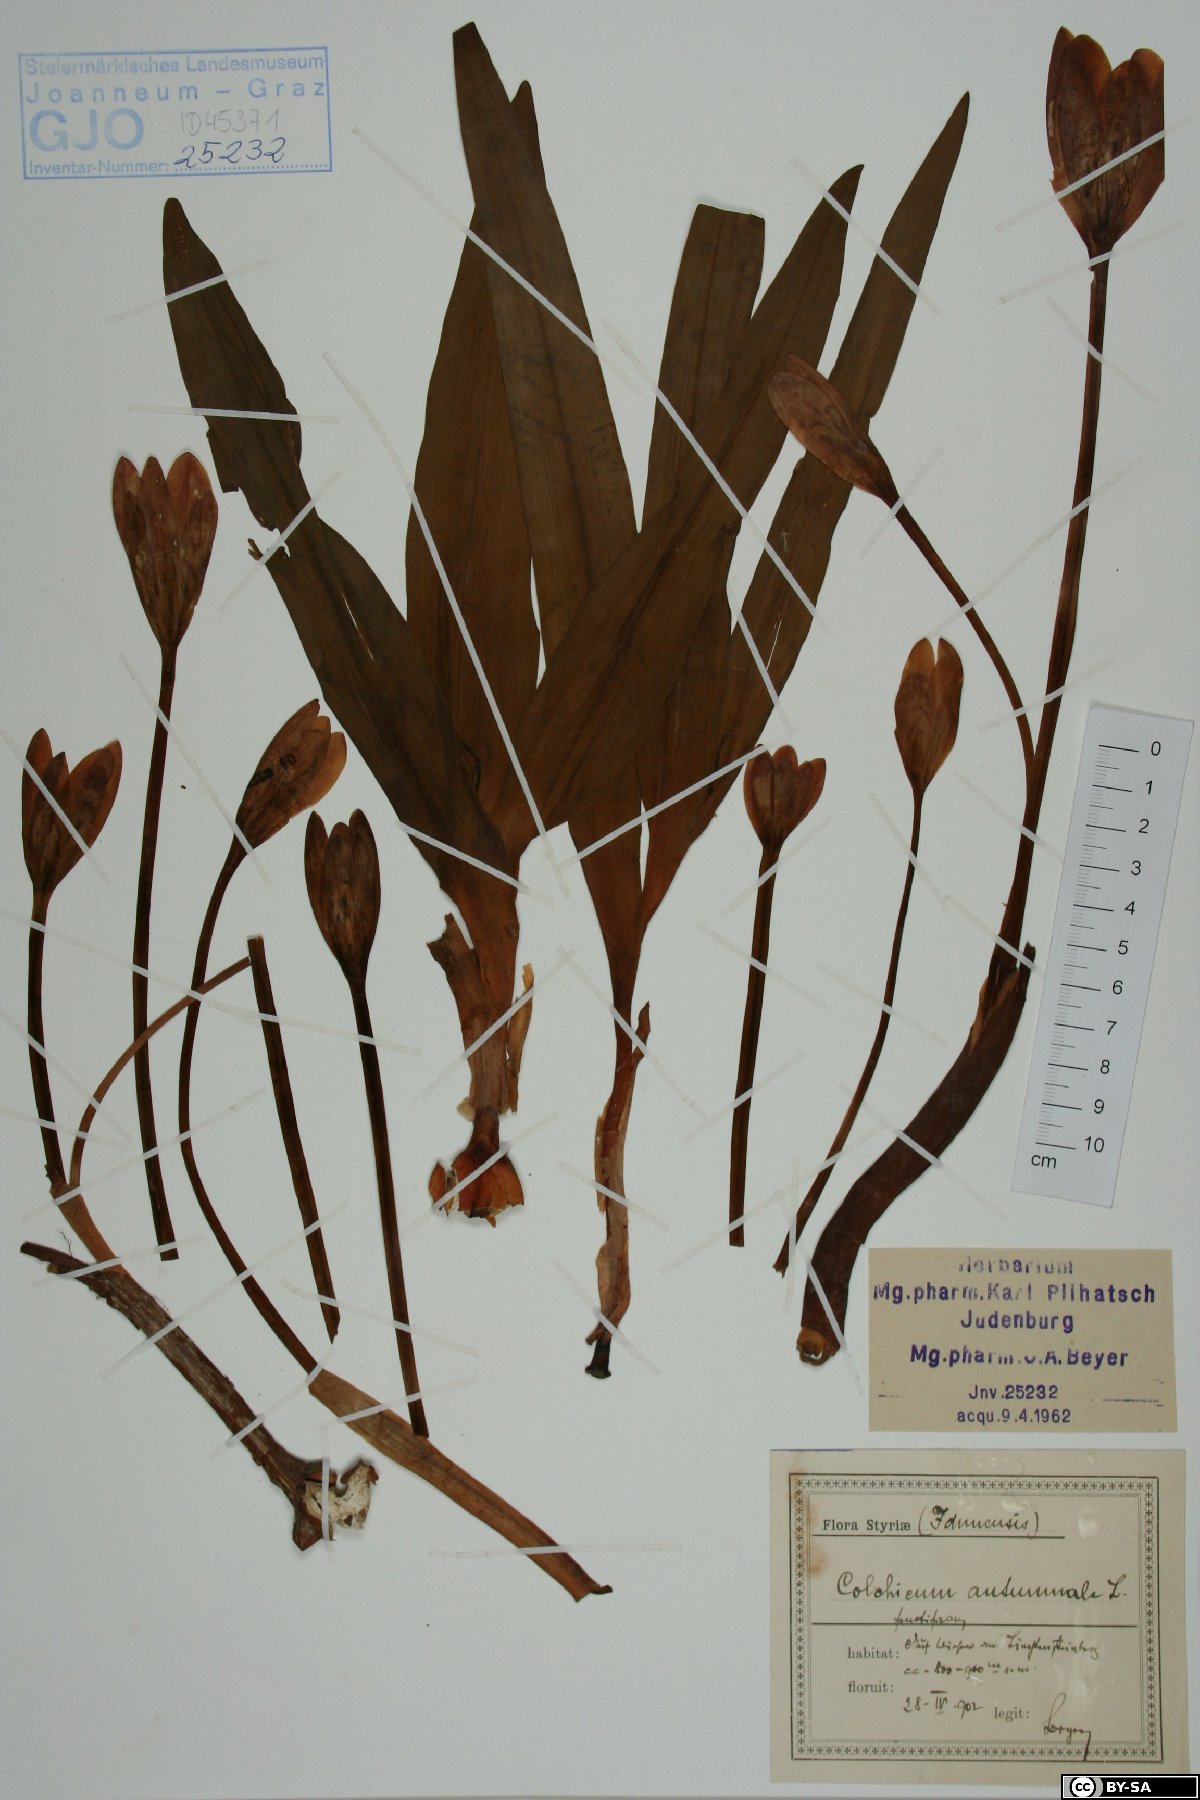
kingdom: Plantae
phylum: Tracheophyta
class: Liliopsida
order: Liliales
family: Colchicaceae
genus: Colchicum
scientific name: Colchicum autumnale
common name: Autumn crocus
